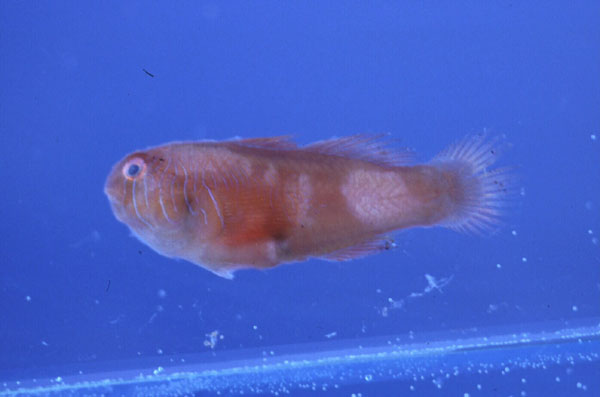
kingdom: Animalia
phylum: Chordata
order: Perciformes
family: Gobiidae
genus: Gobiodon
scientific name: Gobiodon rivulatus
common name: Rippled coralgoby
